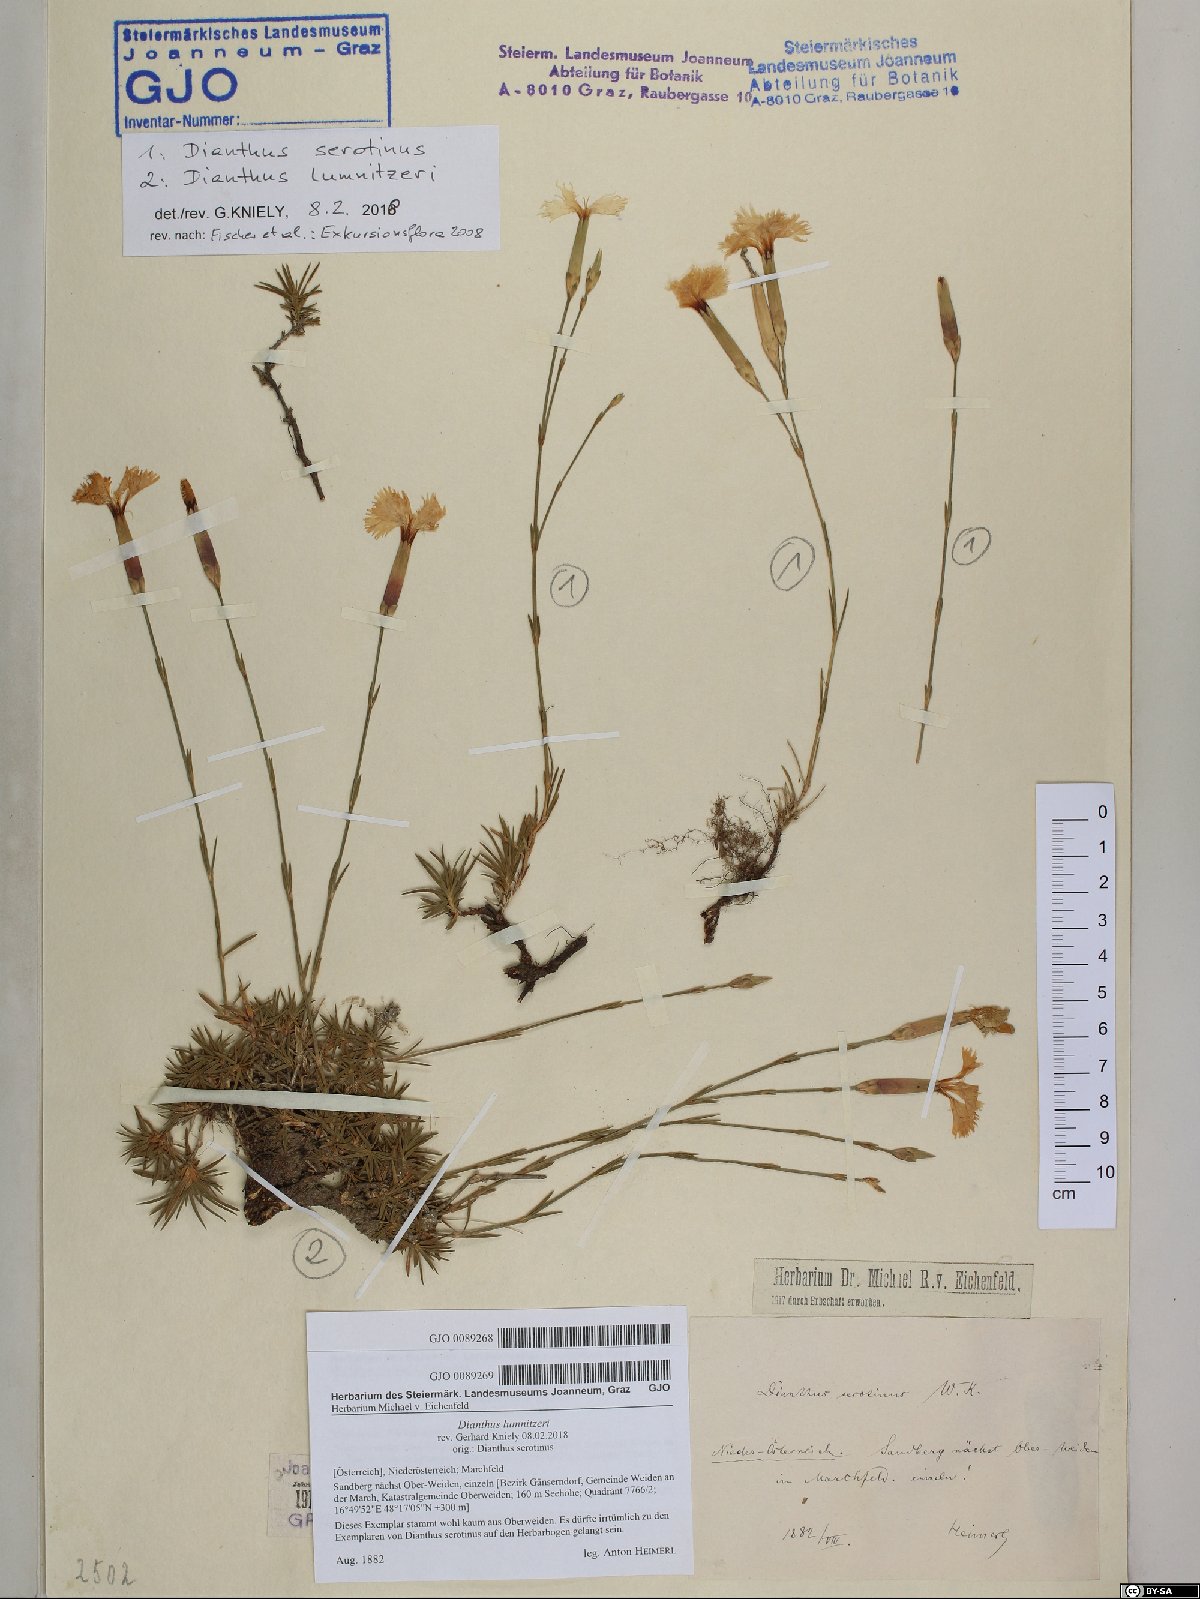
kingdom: Plantae
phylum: Tracheophyta
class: Magnoliopsida
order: Caryophyllales
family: Caryophyllaceae
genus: Dianthus
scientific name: Dianthus serotinus
